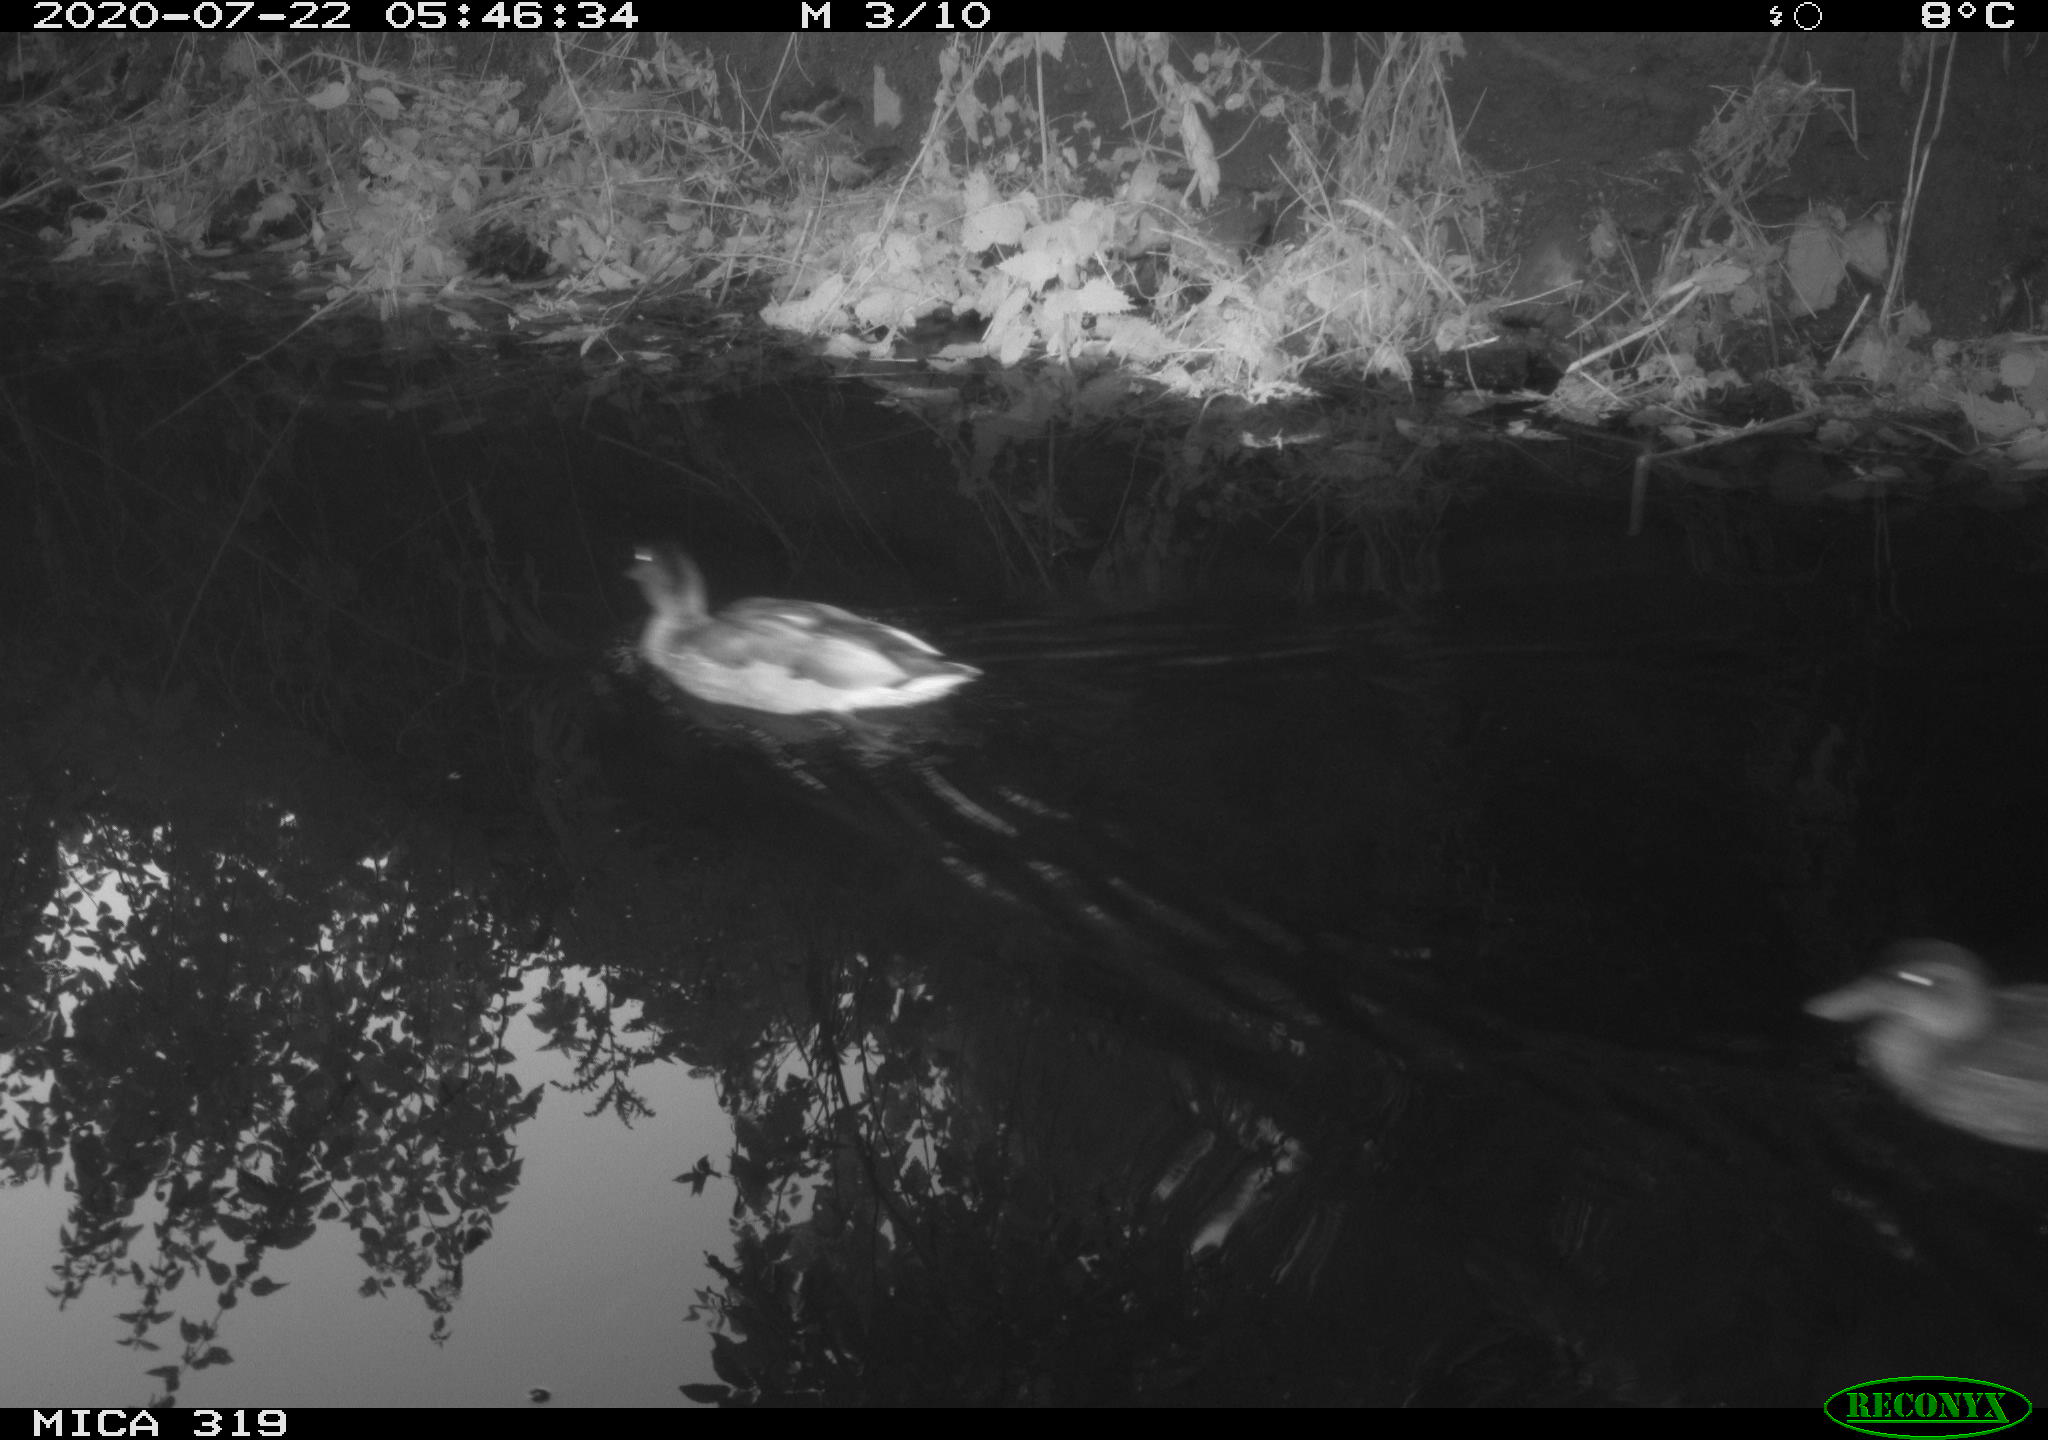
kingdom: Animalia
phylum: Chordata
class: Aves
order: Anseriformes
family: Anatidae
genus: Anas
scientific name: Anas platyrhynchos
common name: Mallard
